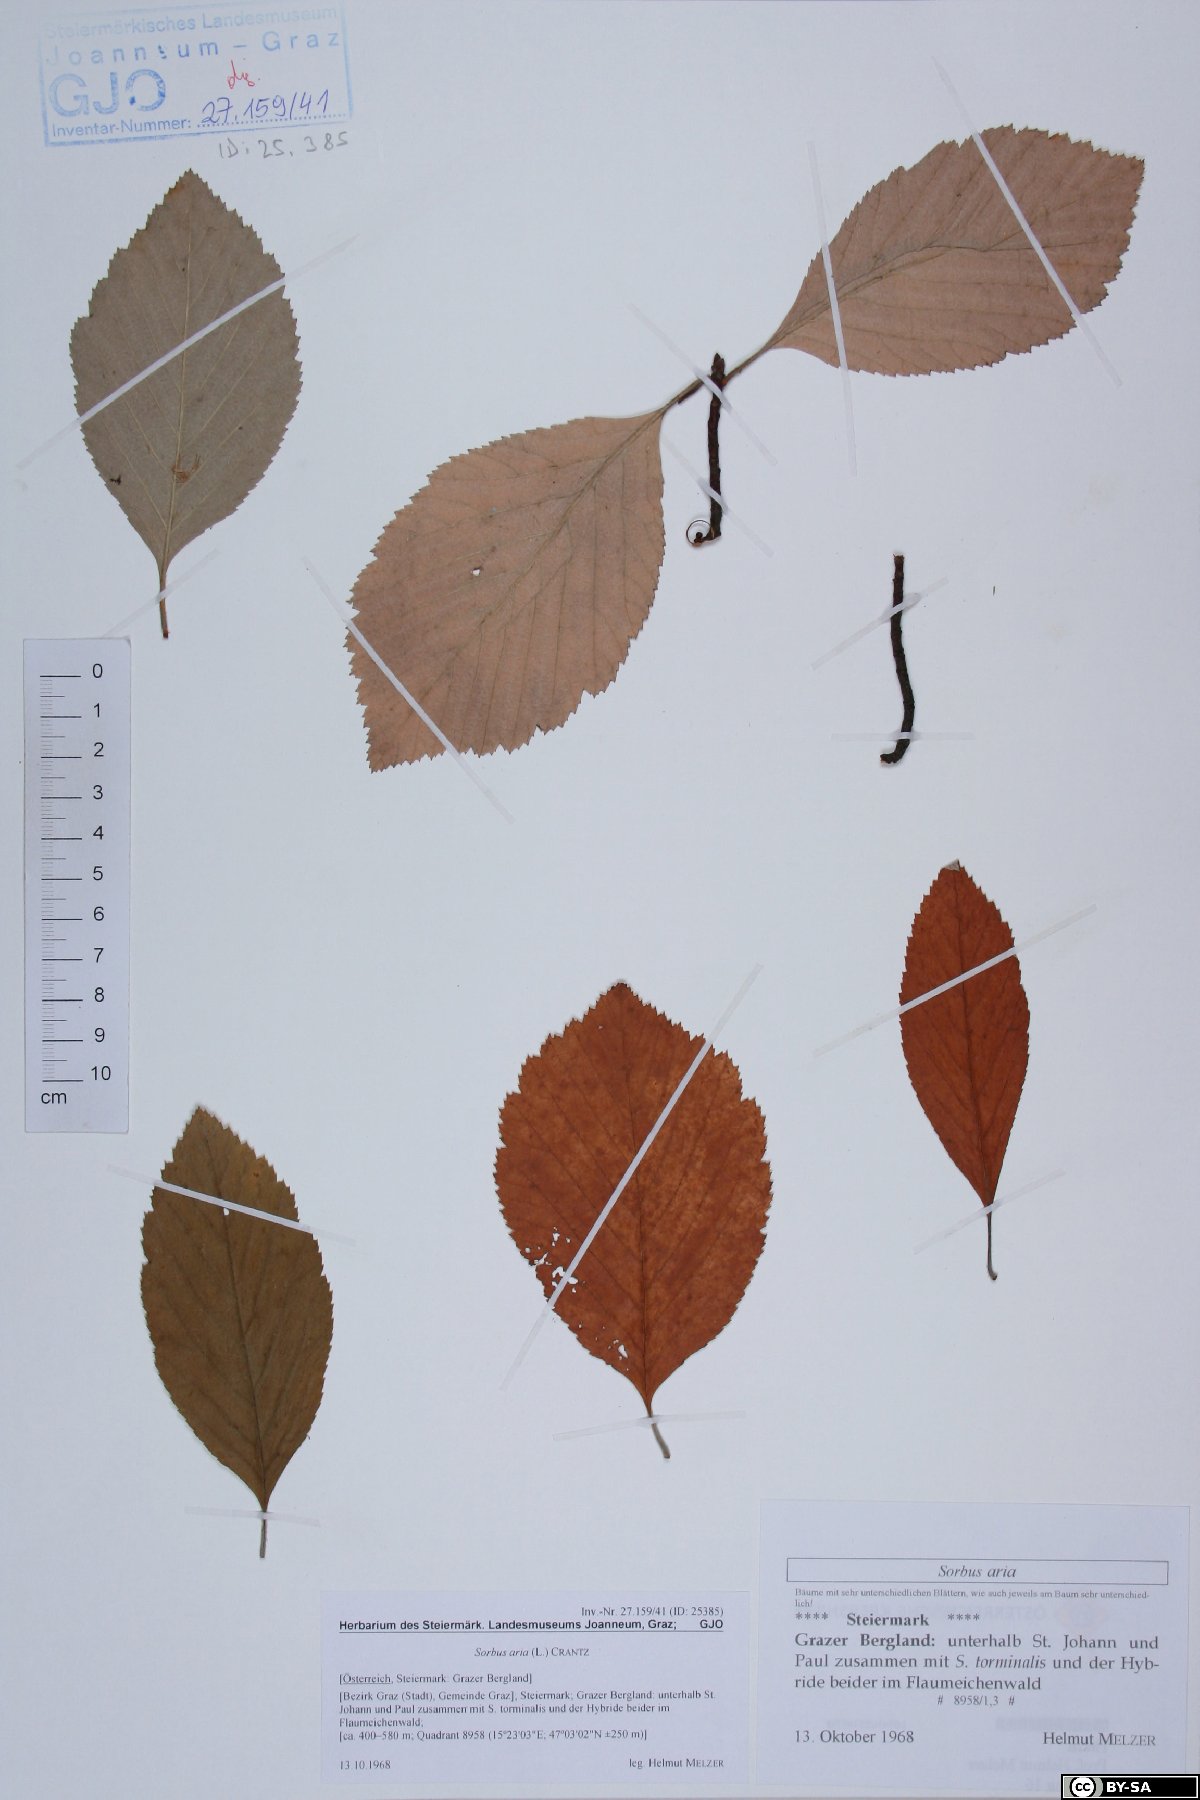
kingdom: Plantae
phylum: Tracheophyta
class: Magnoliopsida
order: Rosales
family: Rosaceae
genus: Aria
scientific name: Aria edulis
